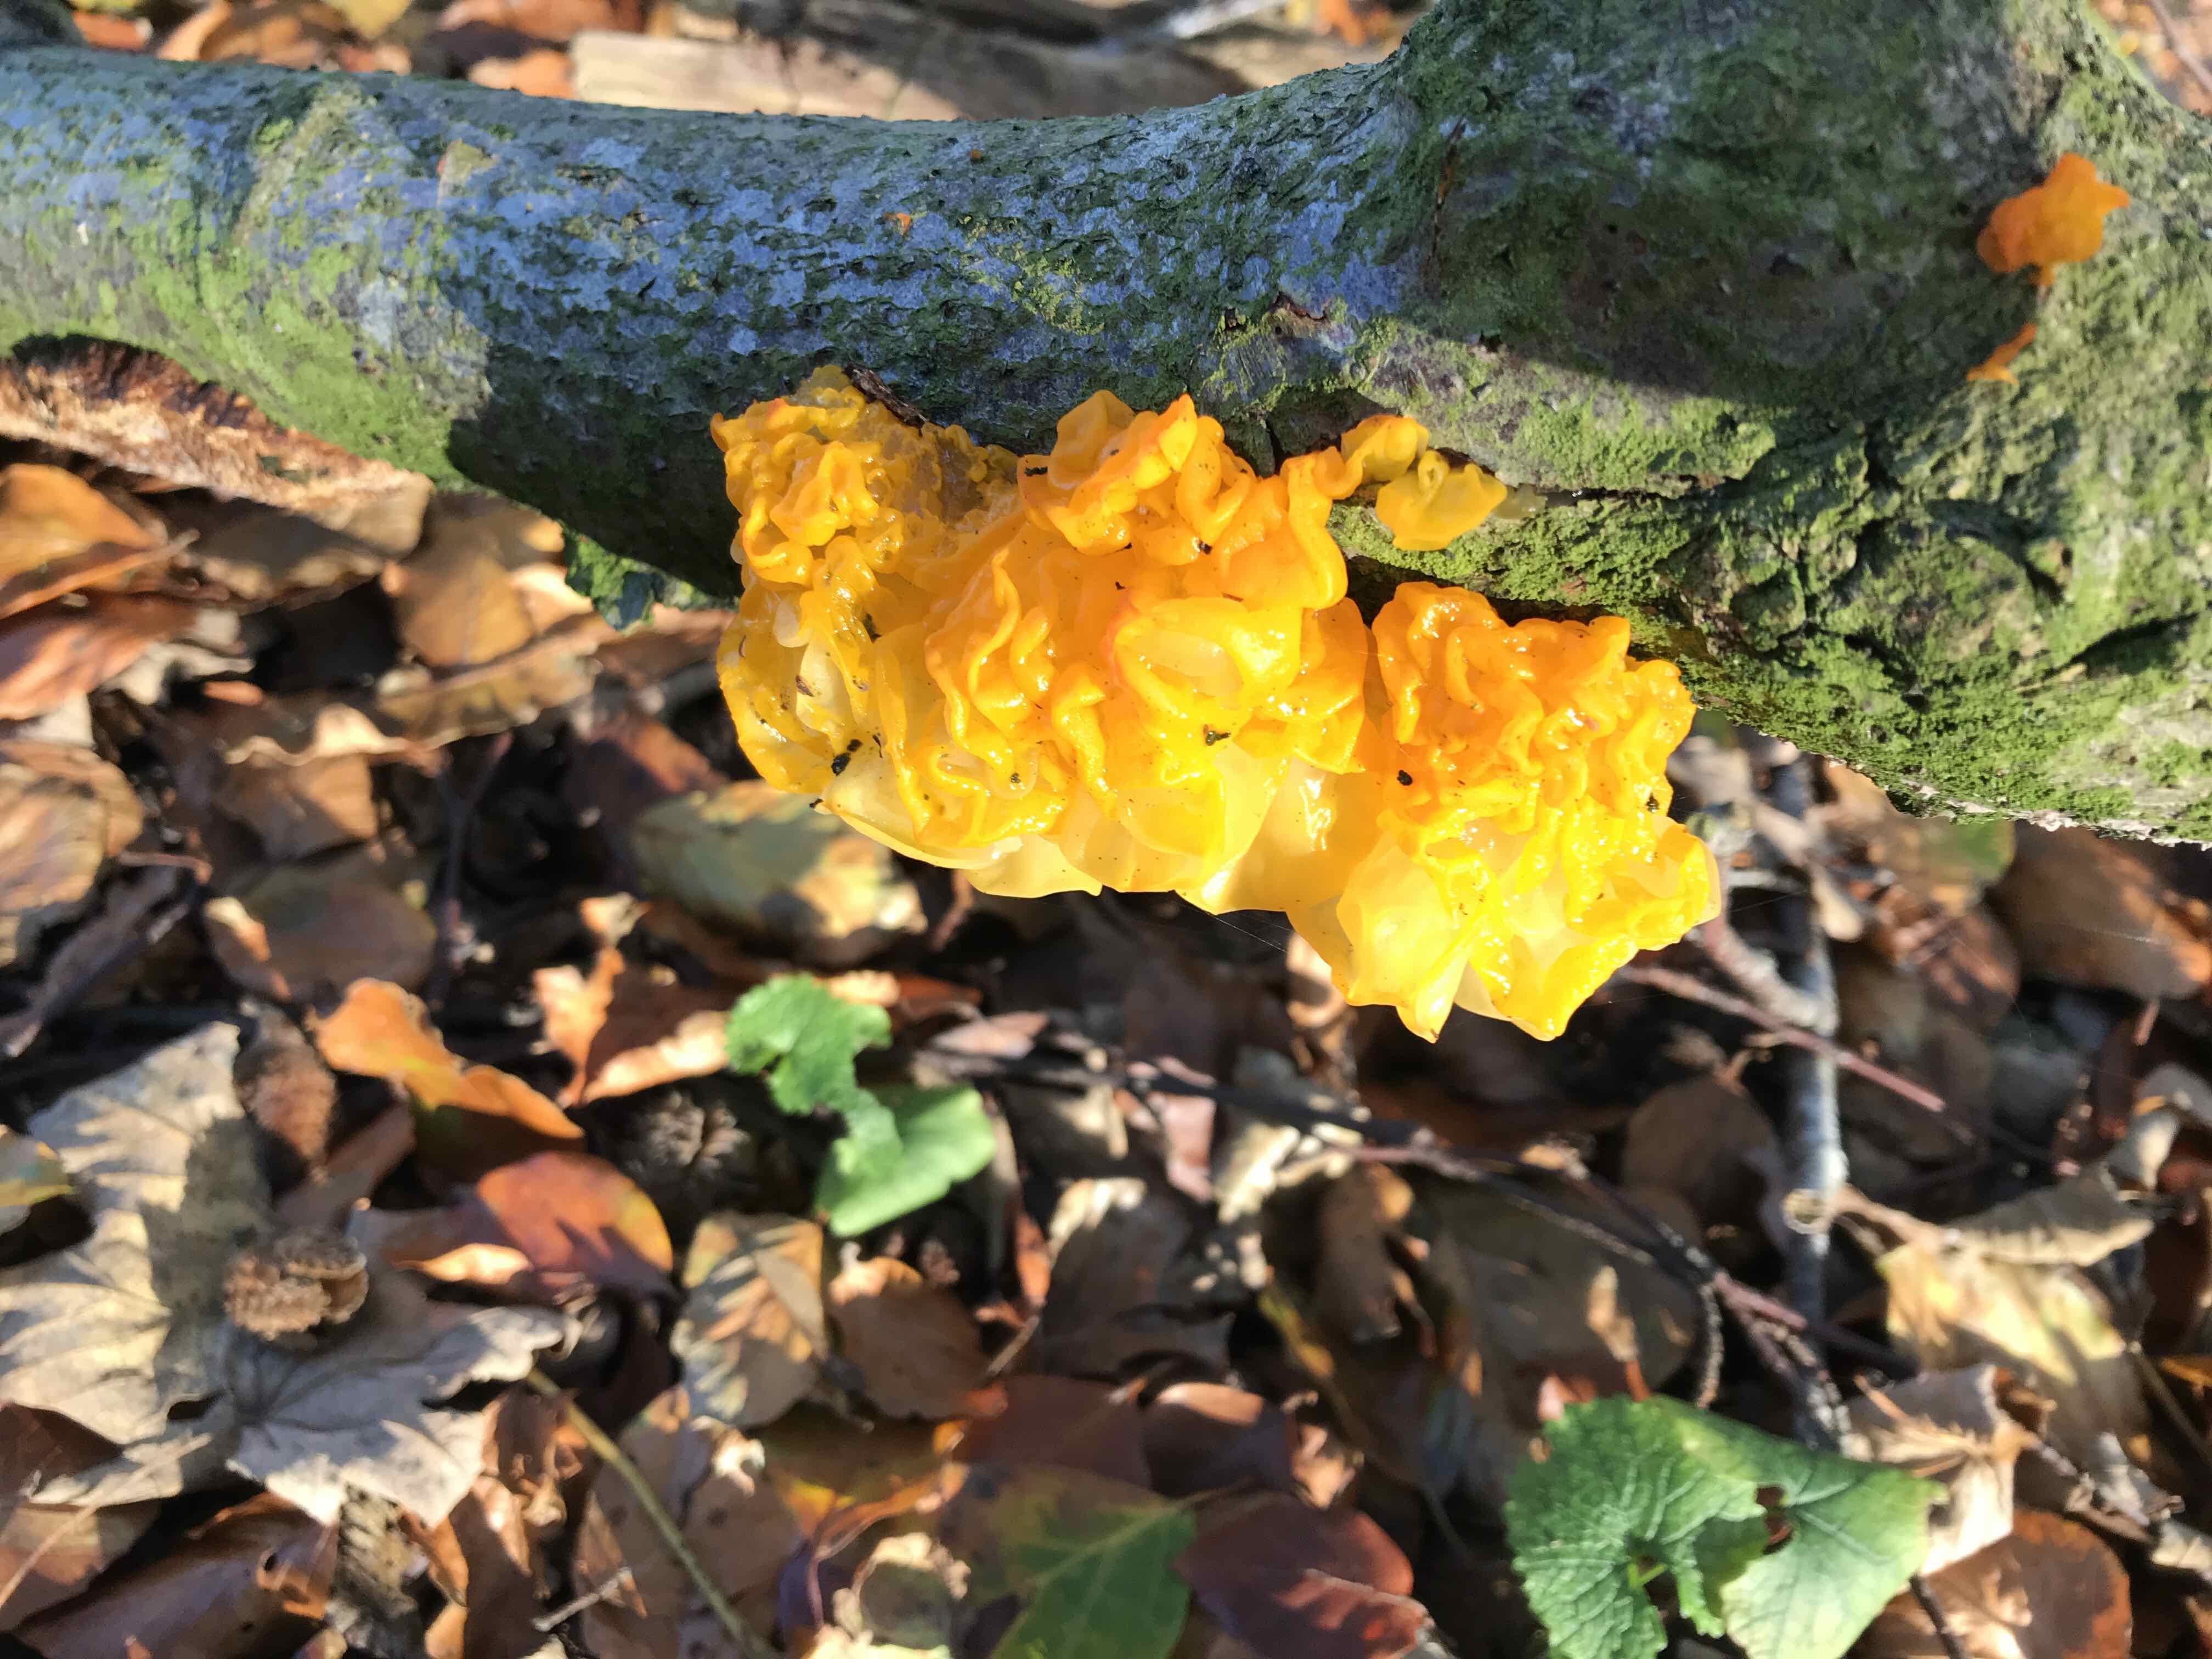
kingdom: Fungi
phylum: Basidiomycota
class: Tremellomycetes
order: Tremellales
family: Tremellaceae
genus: Tremella
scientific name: Tremella mesenterica
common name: gul bævresvamp
